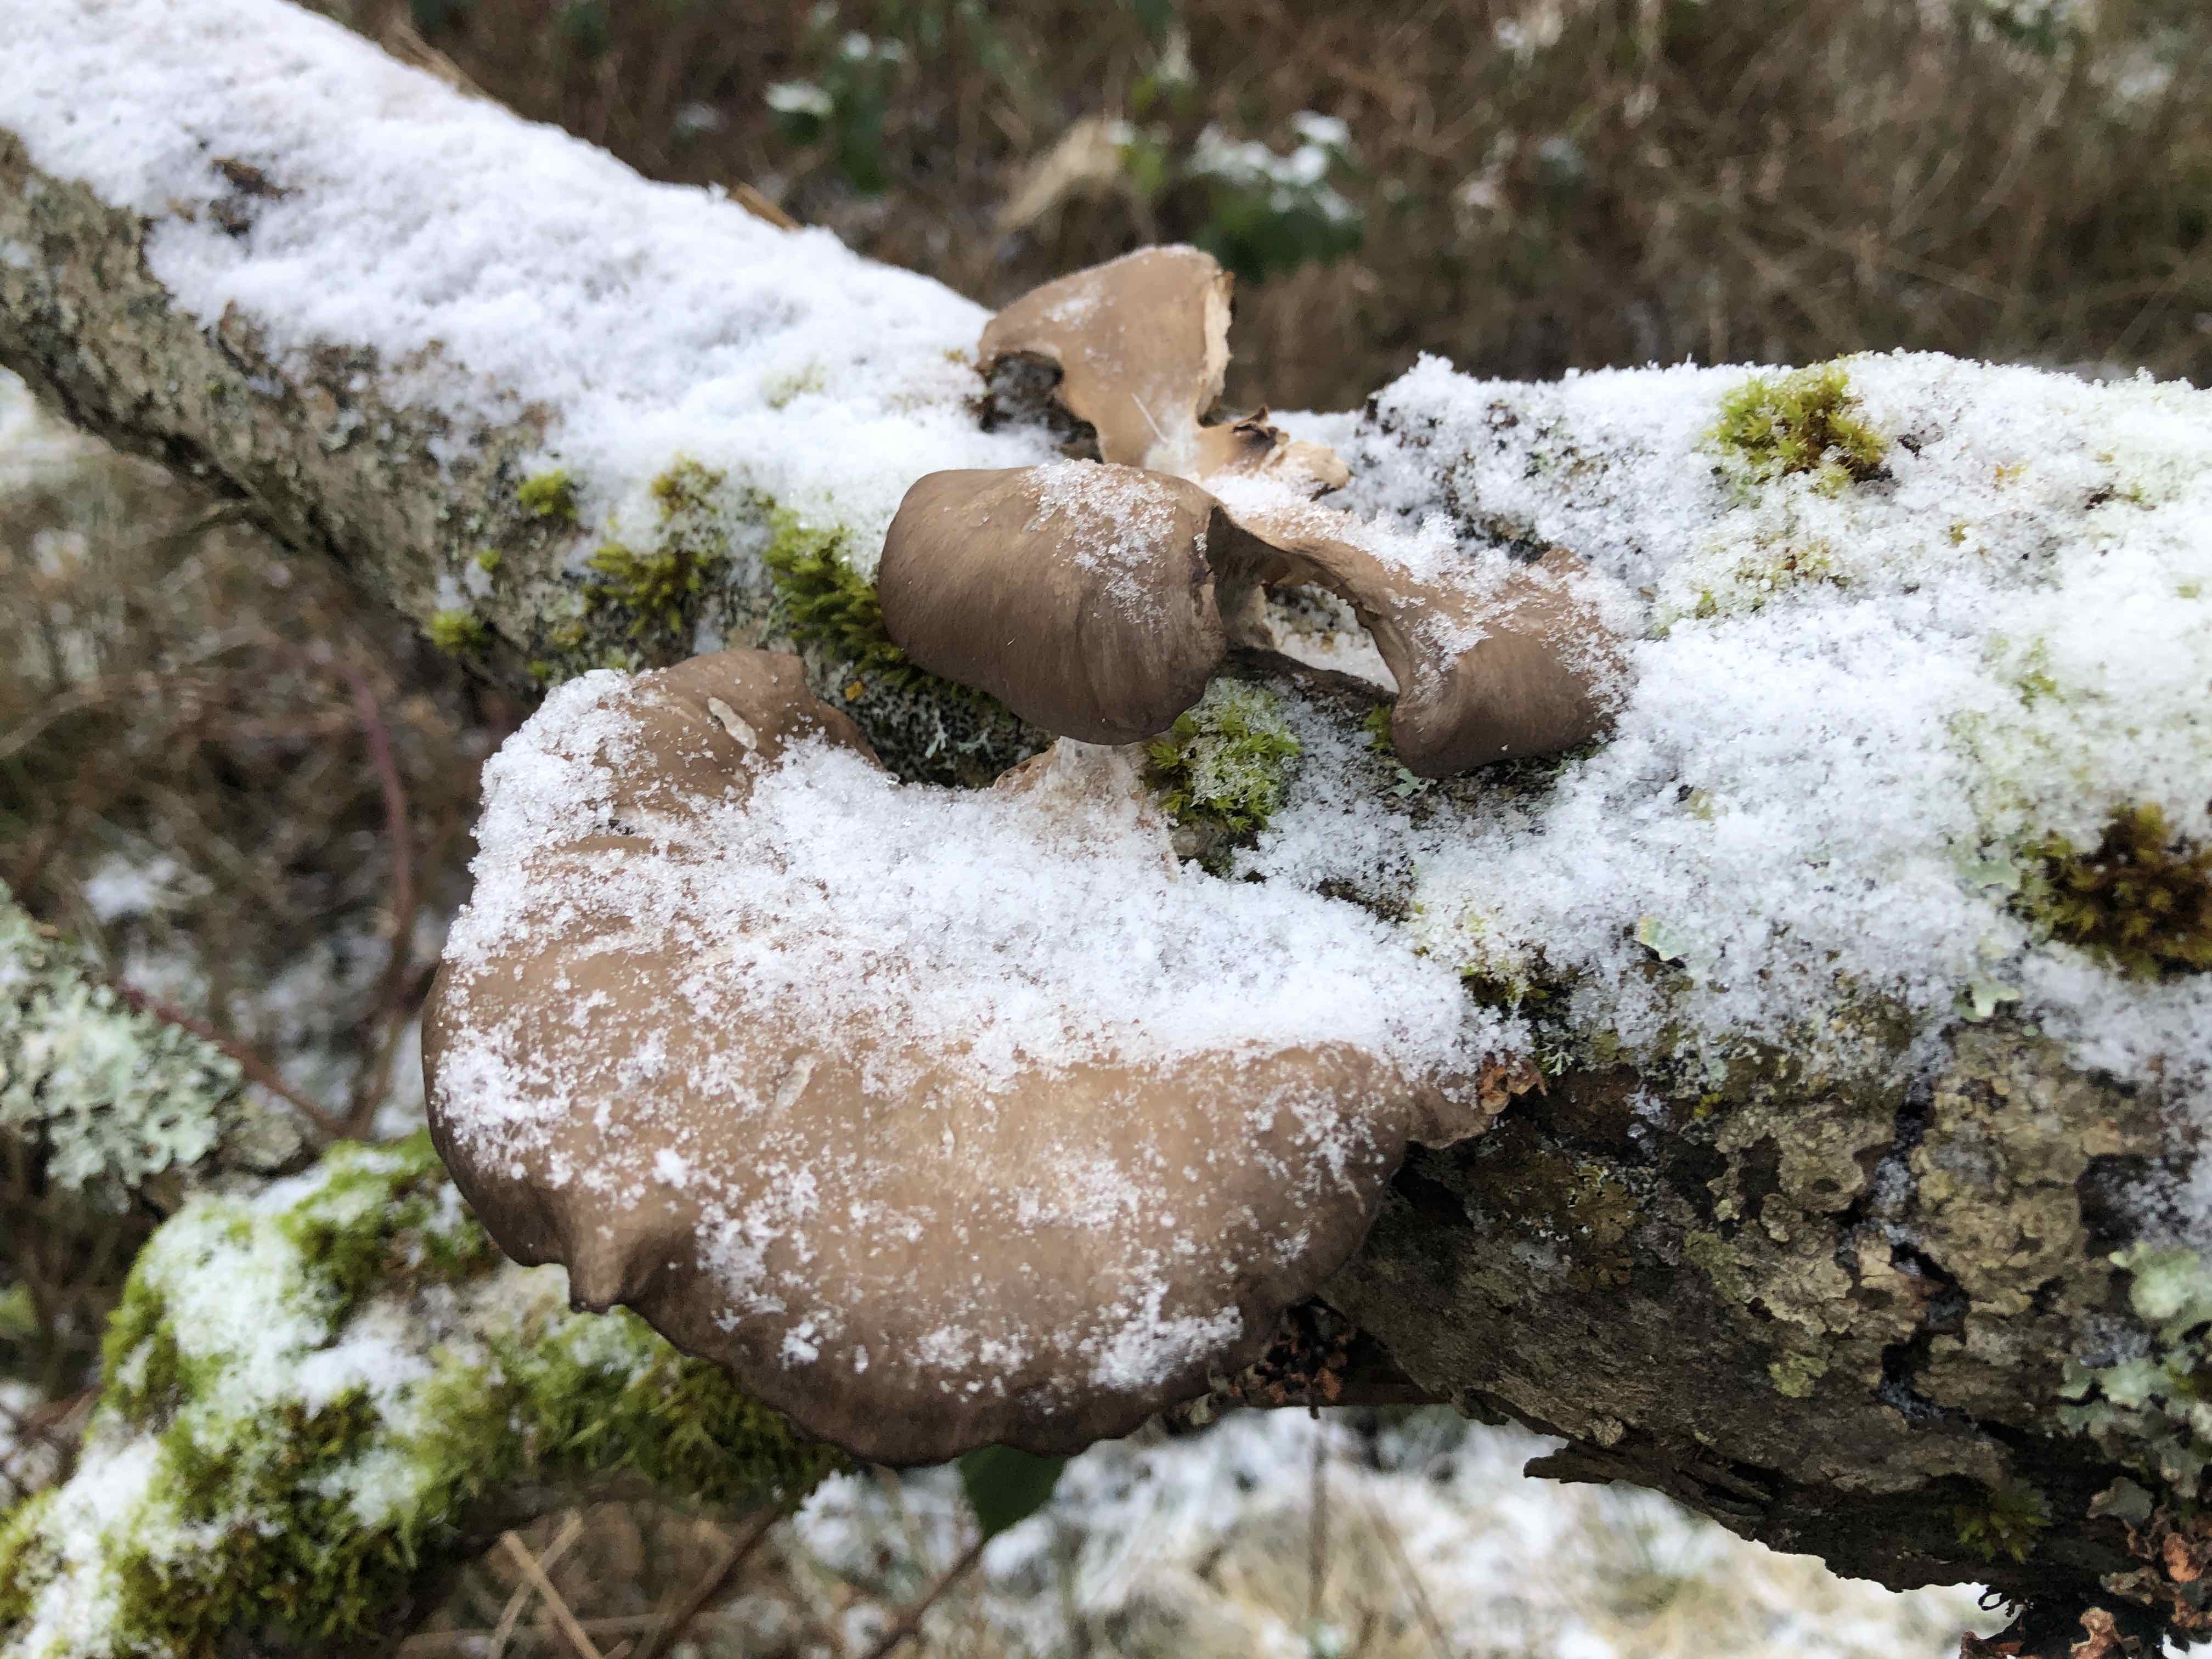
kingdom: Fungi
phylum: Basidiomycota
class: Agaricomycetes
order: Agaricales
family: Pleurotaceae
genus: Pleurotus
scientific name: Pleurotus ostreatus
